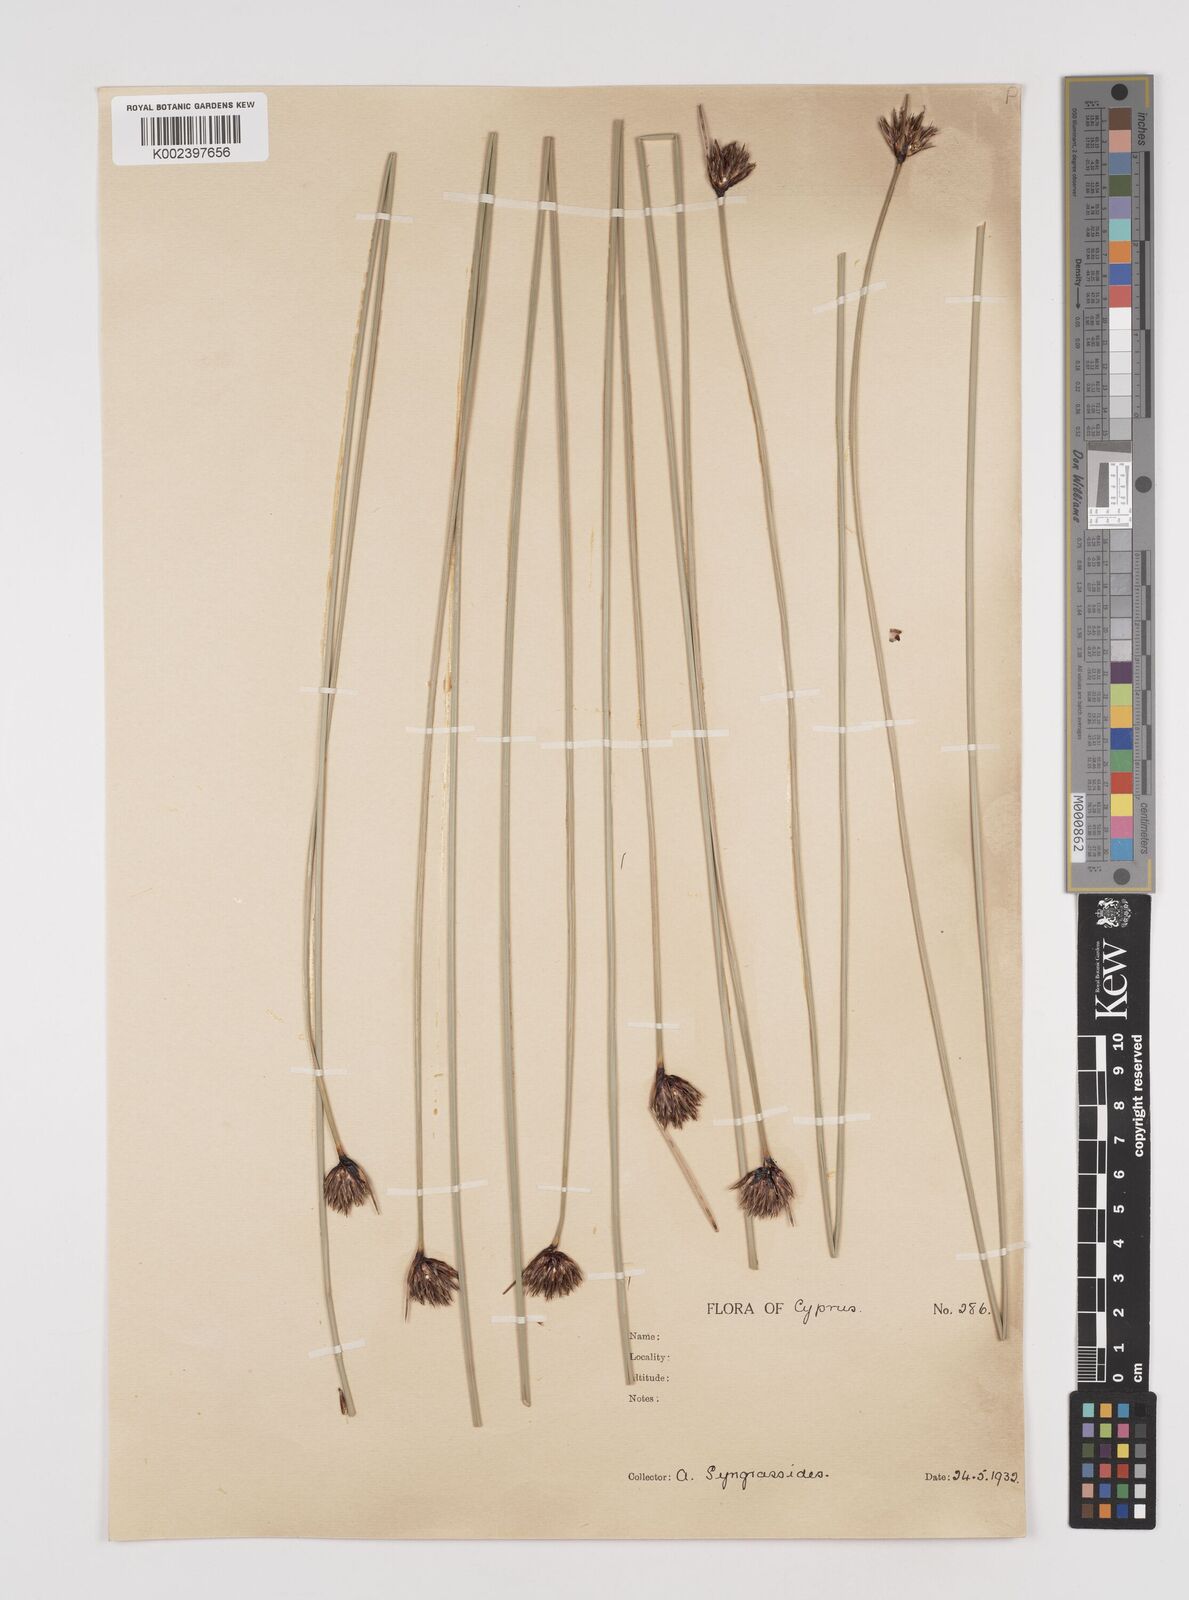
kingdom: Plantae
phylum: Tracheophyta
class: Liliopsida
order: Poales
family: Cyperaceae
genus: Schoenus
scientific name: Schoenus nigricans
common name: Black bog-rush
